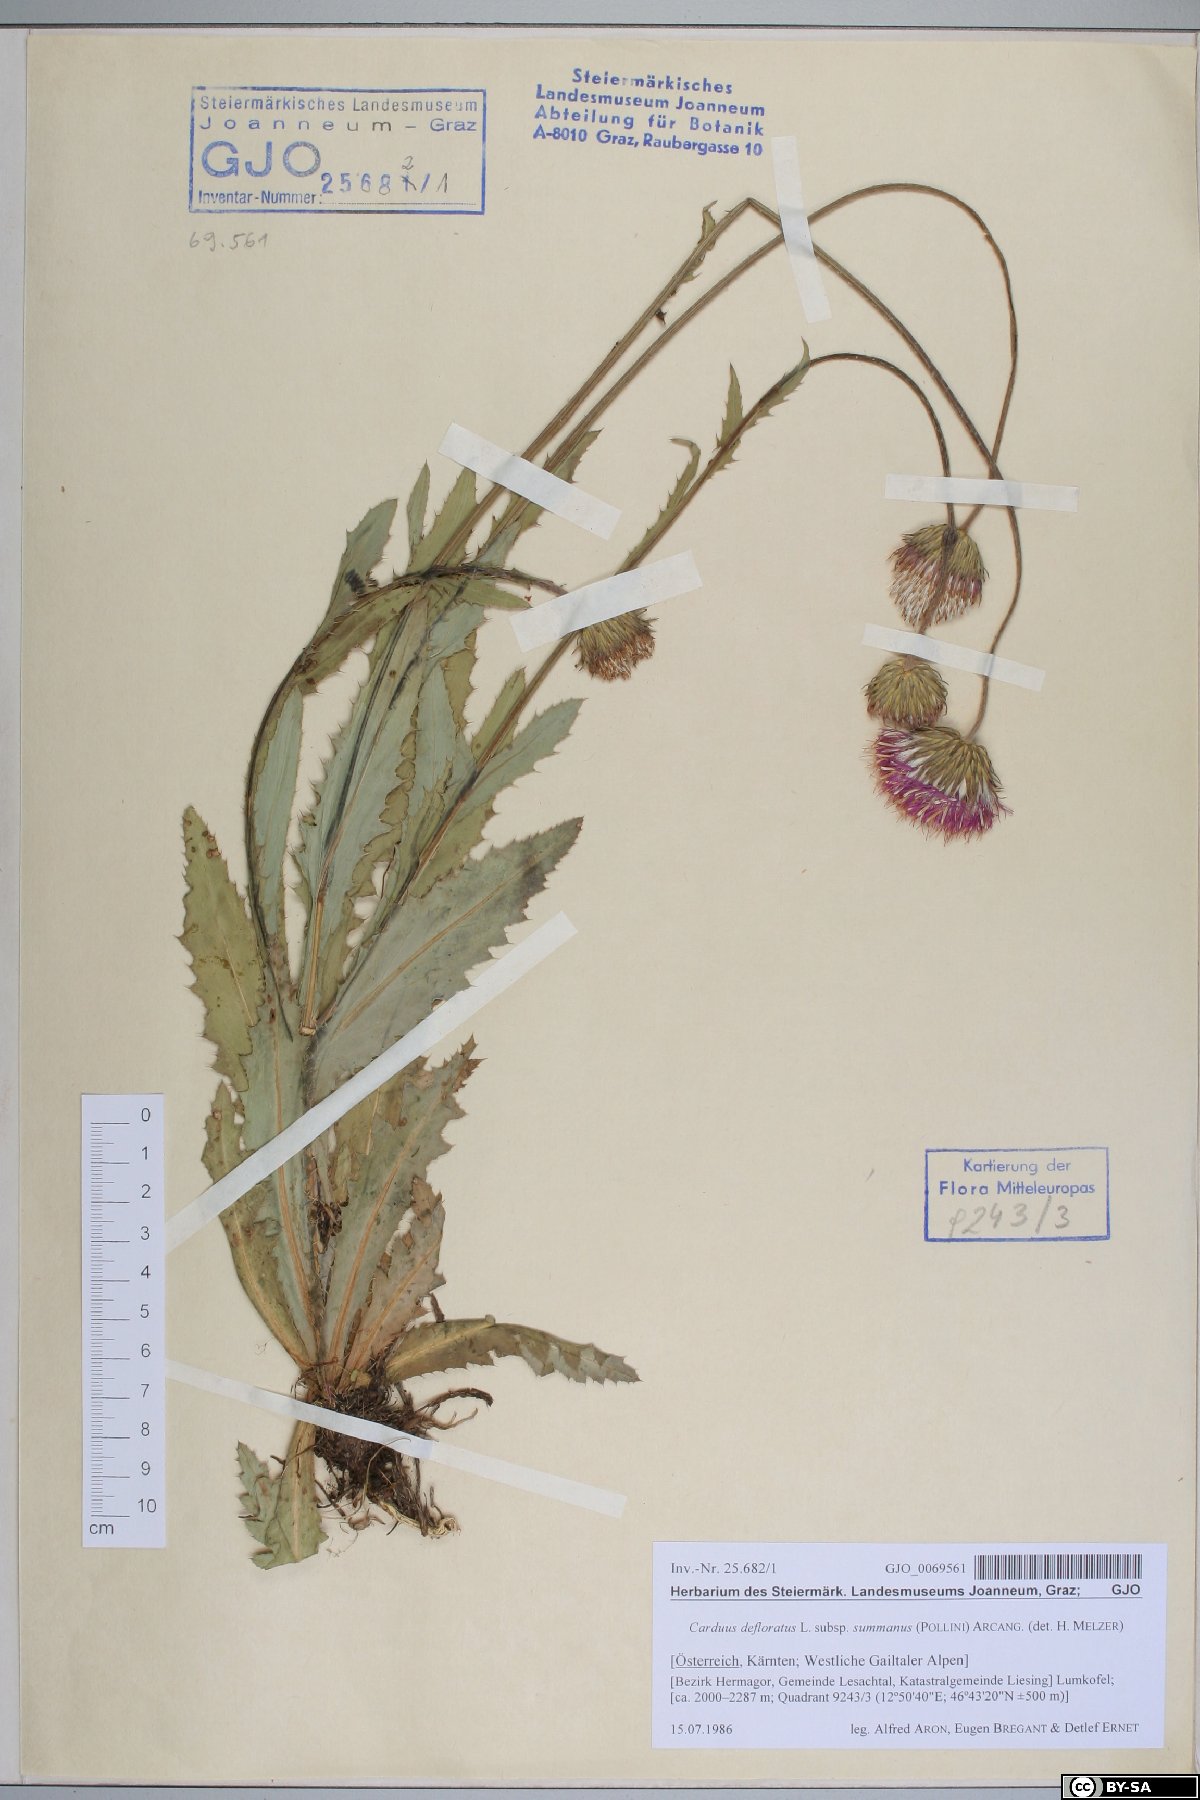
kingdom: Plantae
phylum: Tracheophyta
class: Magnoliopsida
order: Asterales
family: Asteraceae
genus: Carduus
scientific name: Carduus defloratus
